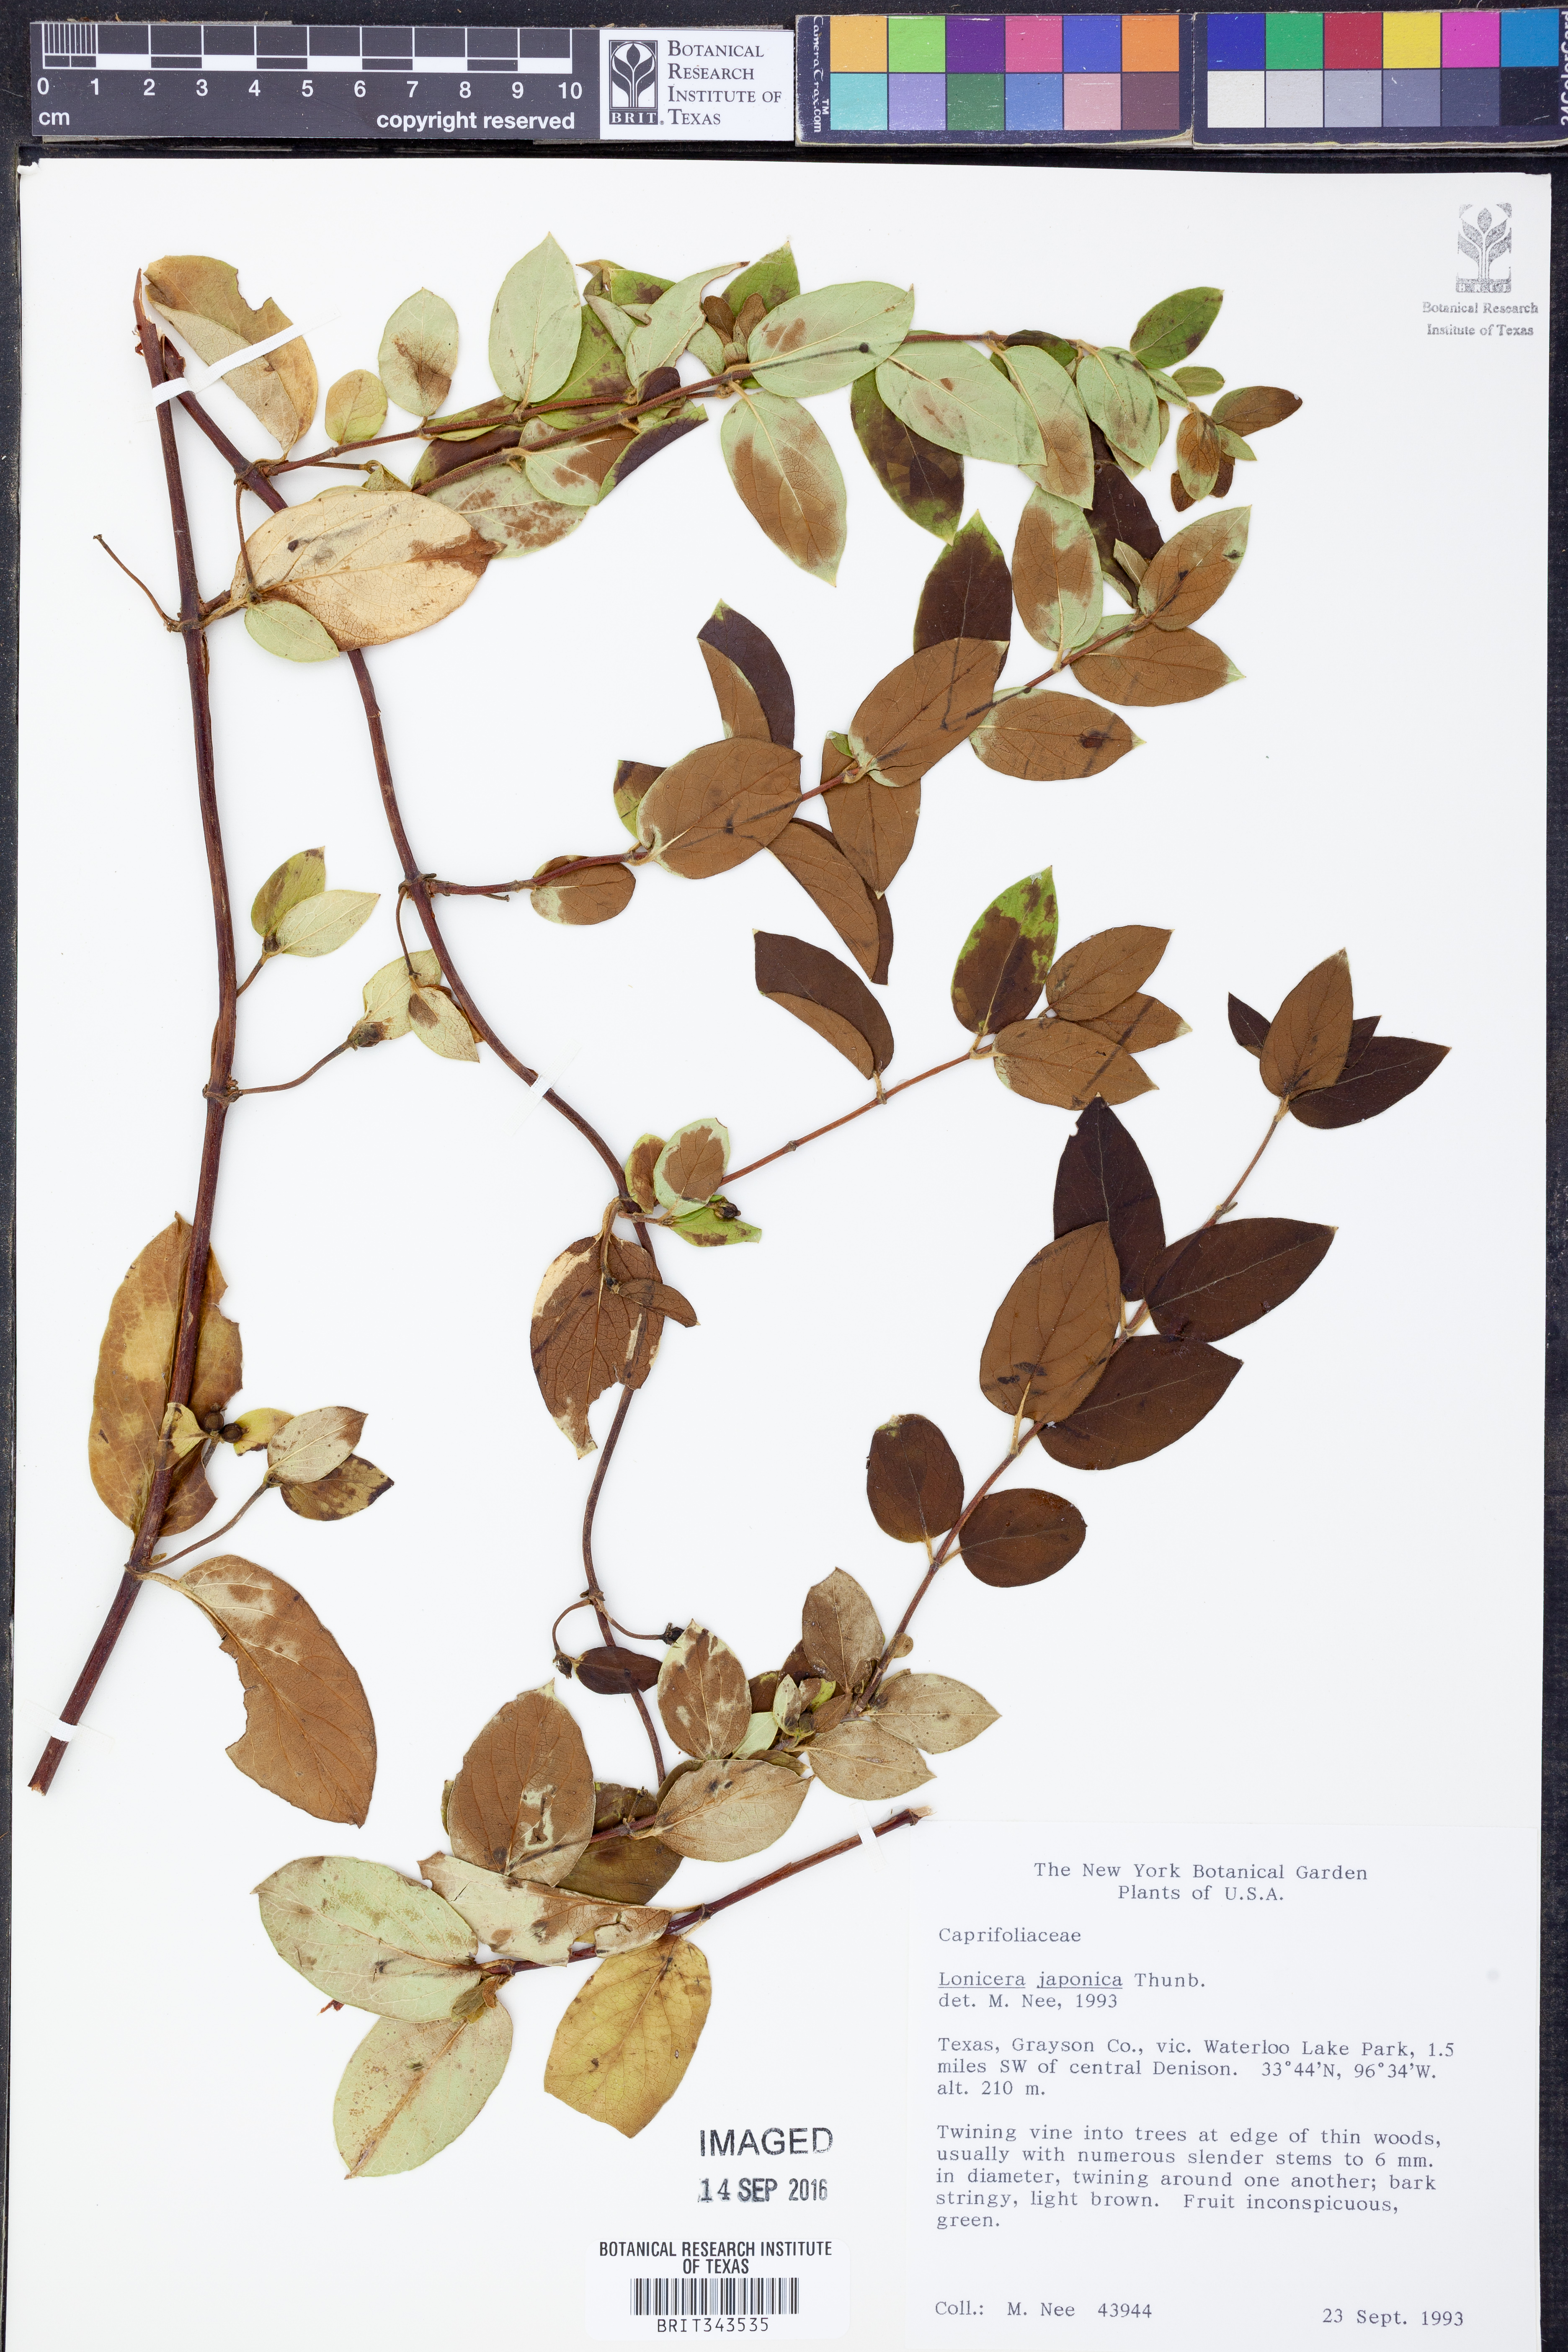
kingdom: Plantae
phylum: Tracheophyta
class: Magnoliopsida
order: Dipsacales
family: Caprifoliaceae
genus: Lonicera
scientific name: Lonicera japonica
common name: Japanese honeysuckle
